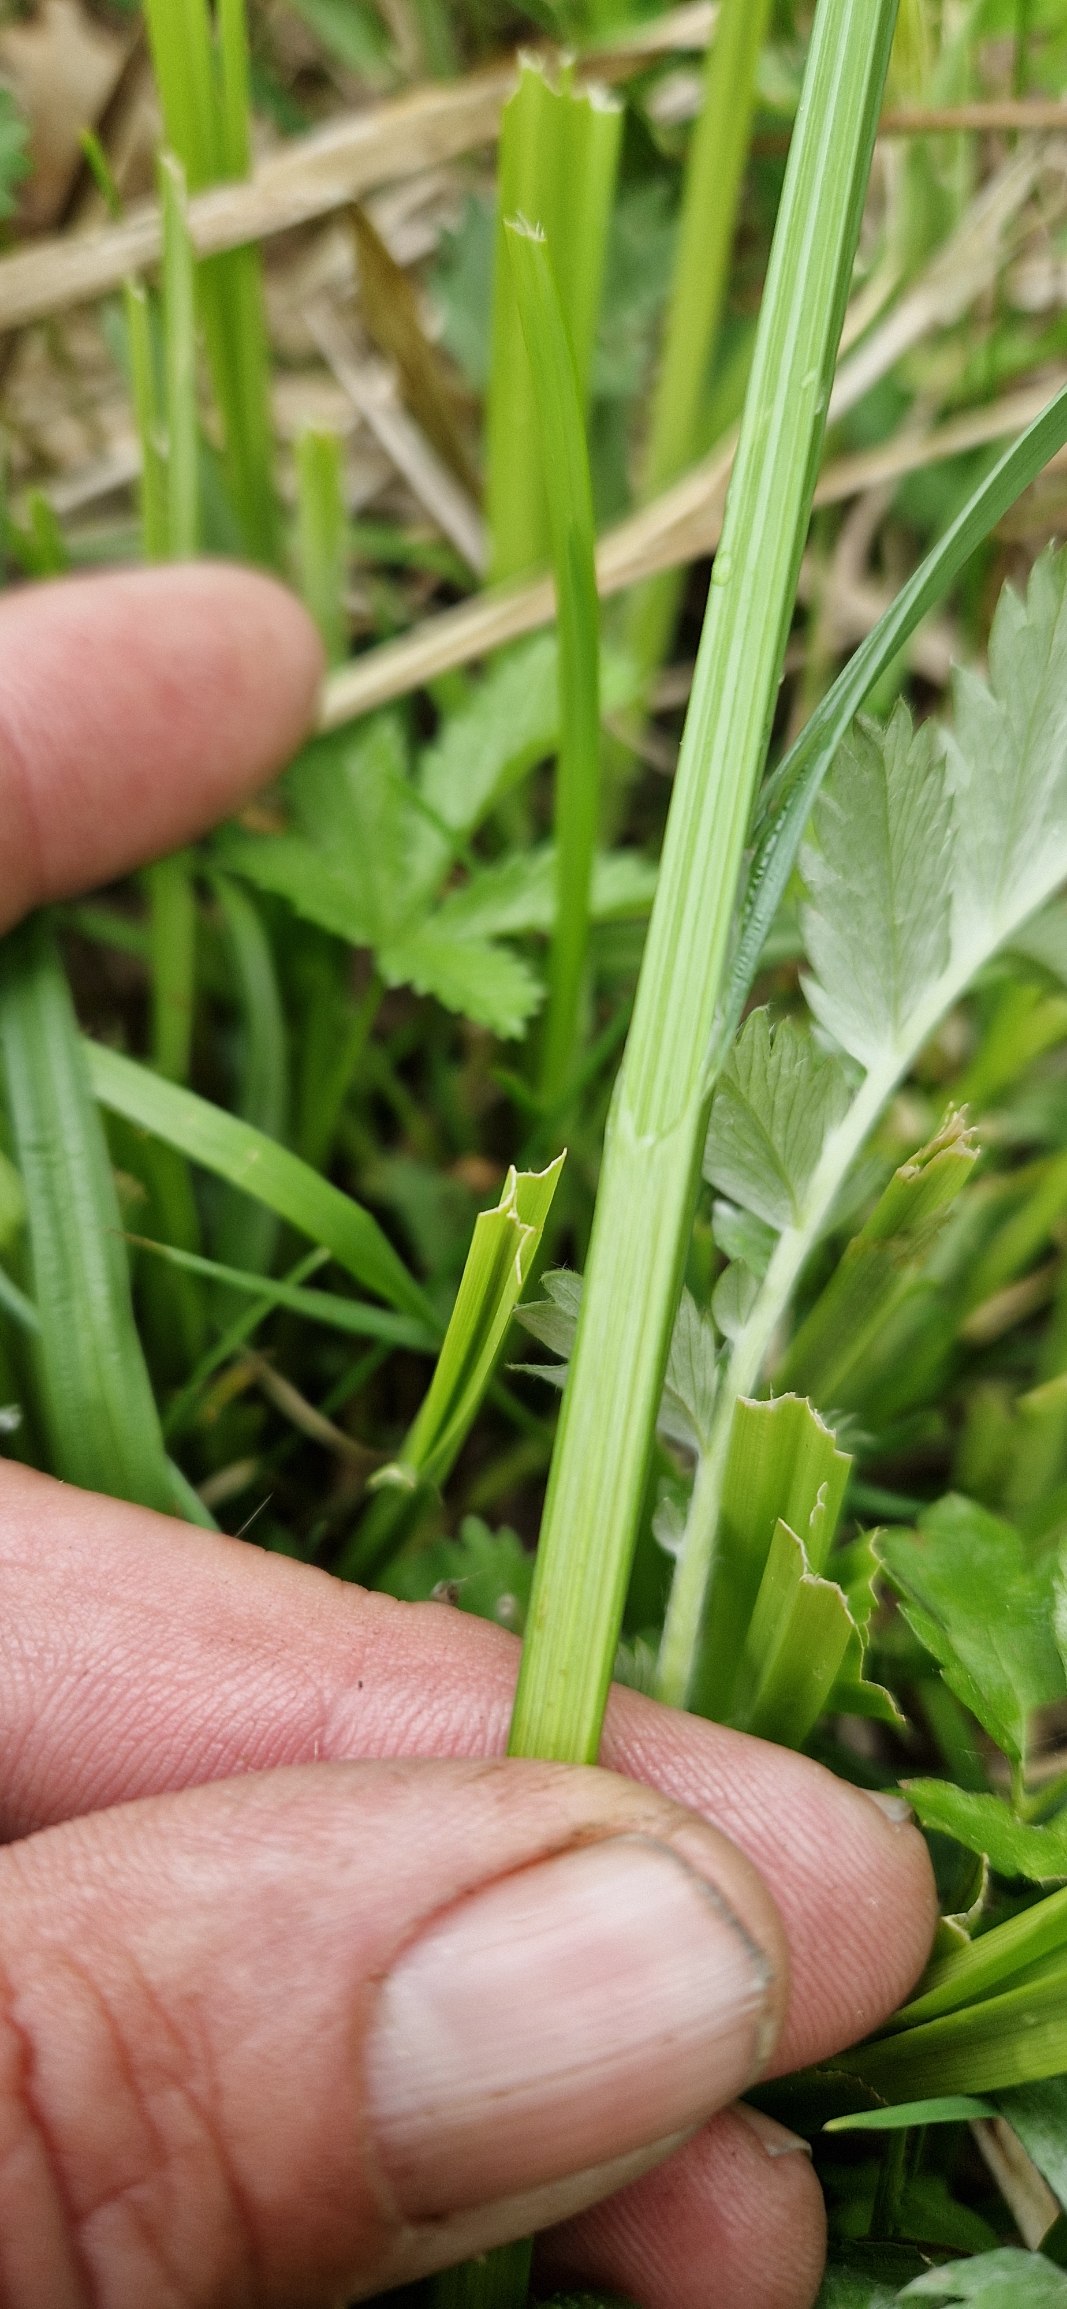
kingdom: Plantae
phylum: Tracheophyta
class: Liliopsida
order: Poales
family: Cyperaceae
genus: Carex
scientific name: Carex otrubae
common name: Sylt-star
